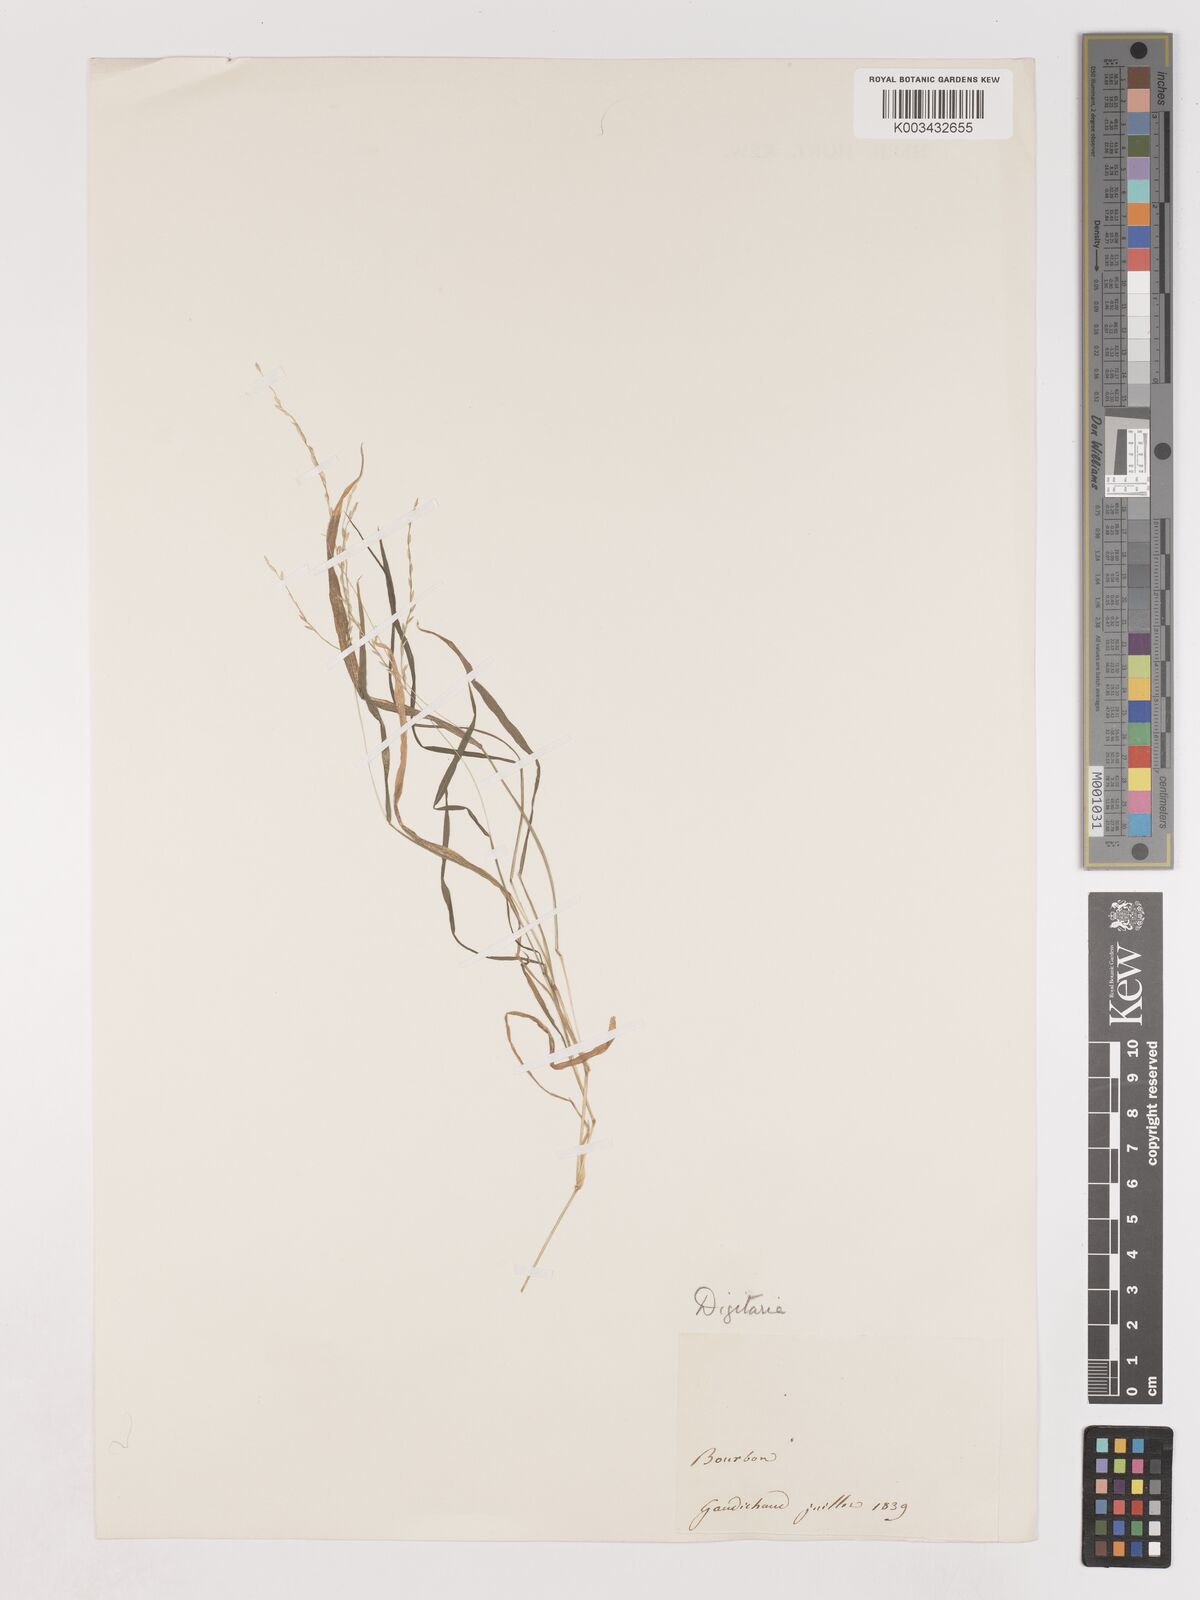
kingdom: Plantae
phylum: Tracheophyta
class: Liliopsida
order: Poales
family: Poaceae
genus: Digitaria
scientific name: Digitaria didactyla
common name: Blue couch
